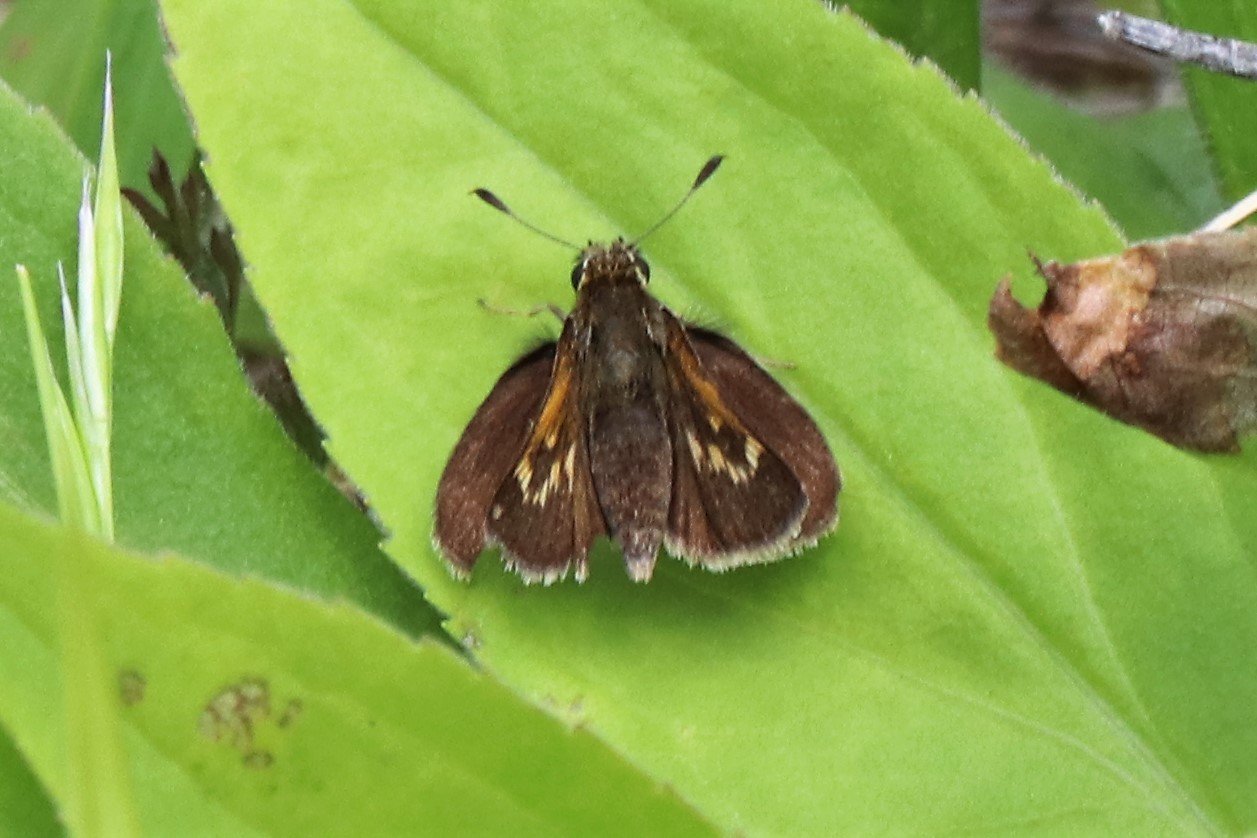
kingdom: Animalia
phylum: Arthropoda
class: Insecta
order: Lepidoptera
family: Hesperiidae
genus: Polites
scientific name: Polites themistocles
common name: Tawny-edged Skipper
